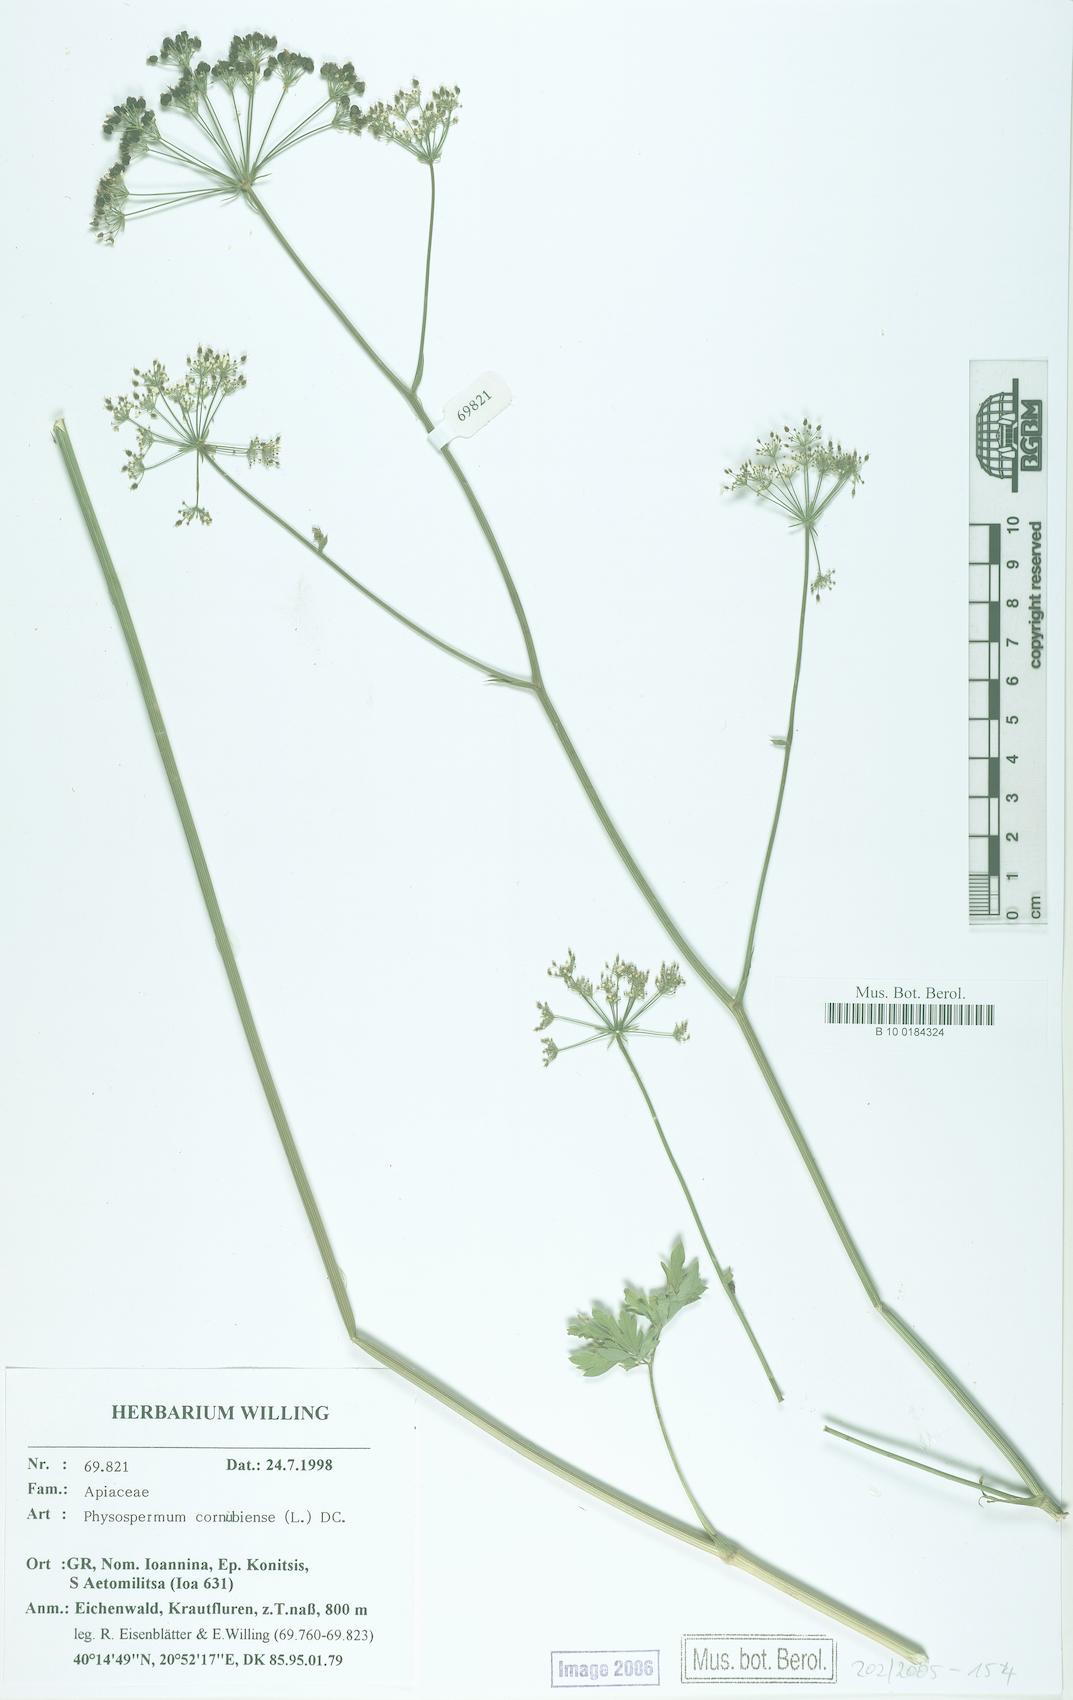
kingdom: Plantae
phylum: Tracheophyta
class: Magnoliopsida
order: Apiales
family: Apiaceae
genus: Physospermum
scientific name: Physospermum cornubiense
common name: Bladderseed
